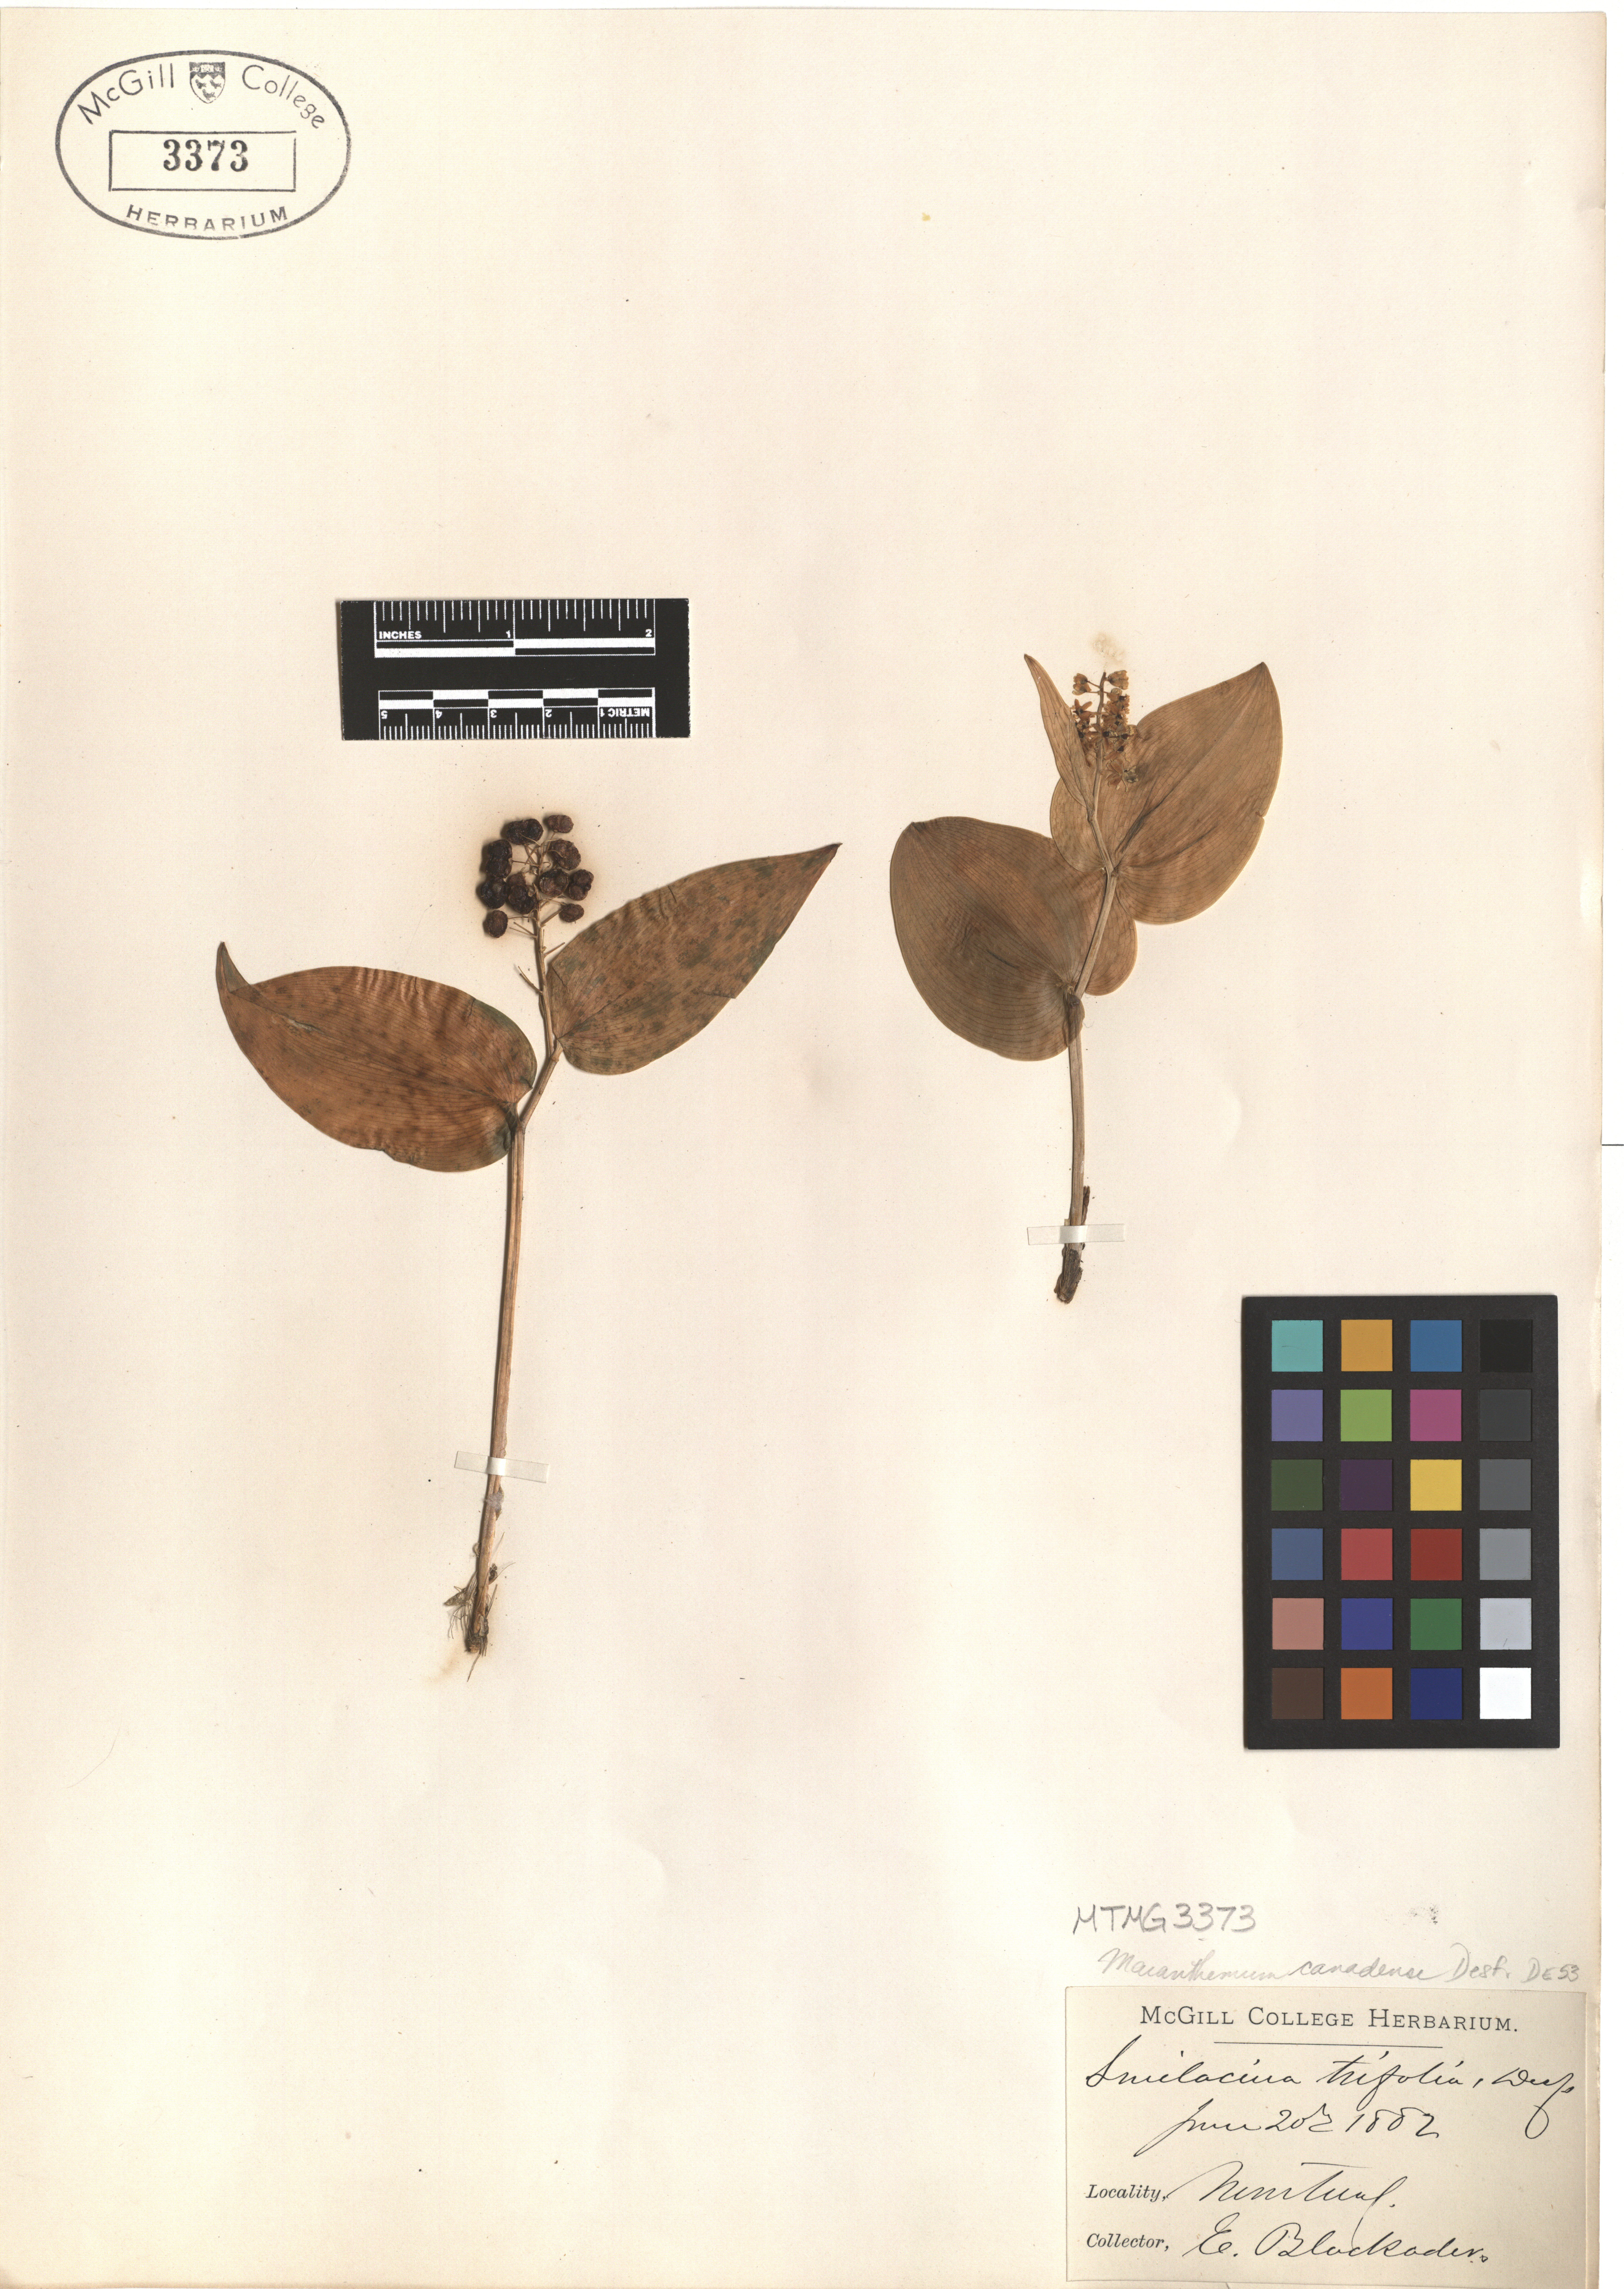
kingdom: Plantae
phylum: Tracheophyta
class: Liliopsida
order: Asparagales
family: Asparagaceae
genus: Maianthemum
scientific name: Maianthemum canadense
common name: False lily-of-the-valley
